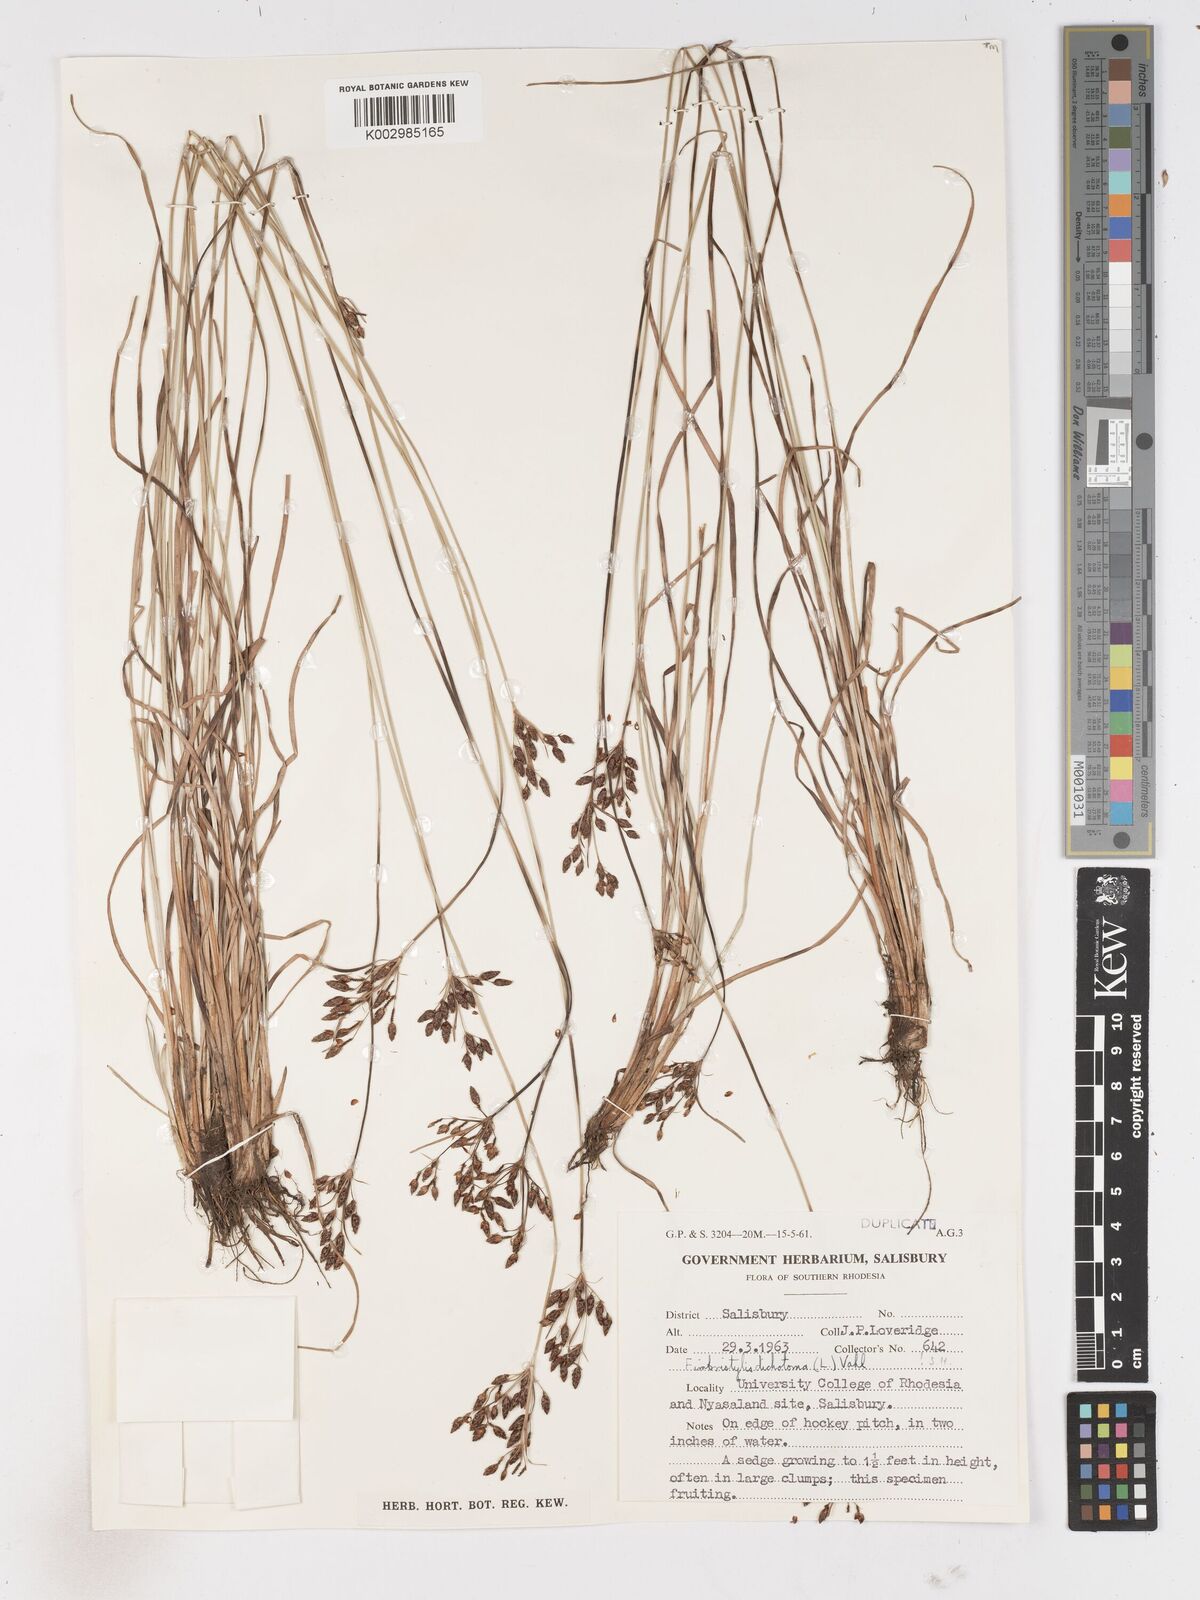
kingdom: Plantae
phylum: Tracheophyta
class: Liliopsida
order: Poales
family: Cyperaceae
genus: Fimbristylis
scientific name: Fimbristylis dichotoma
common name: Forked fimbry
